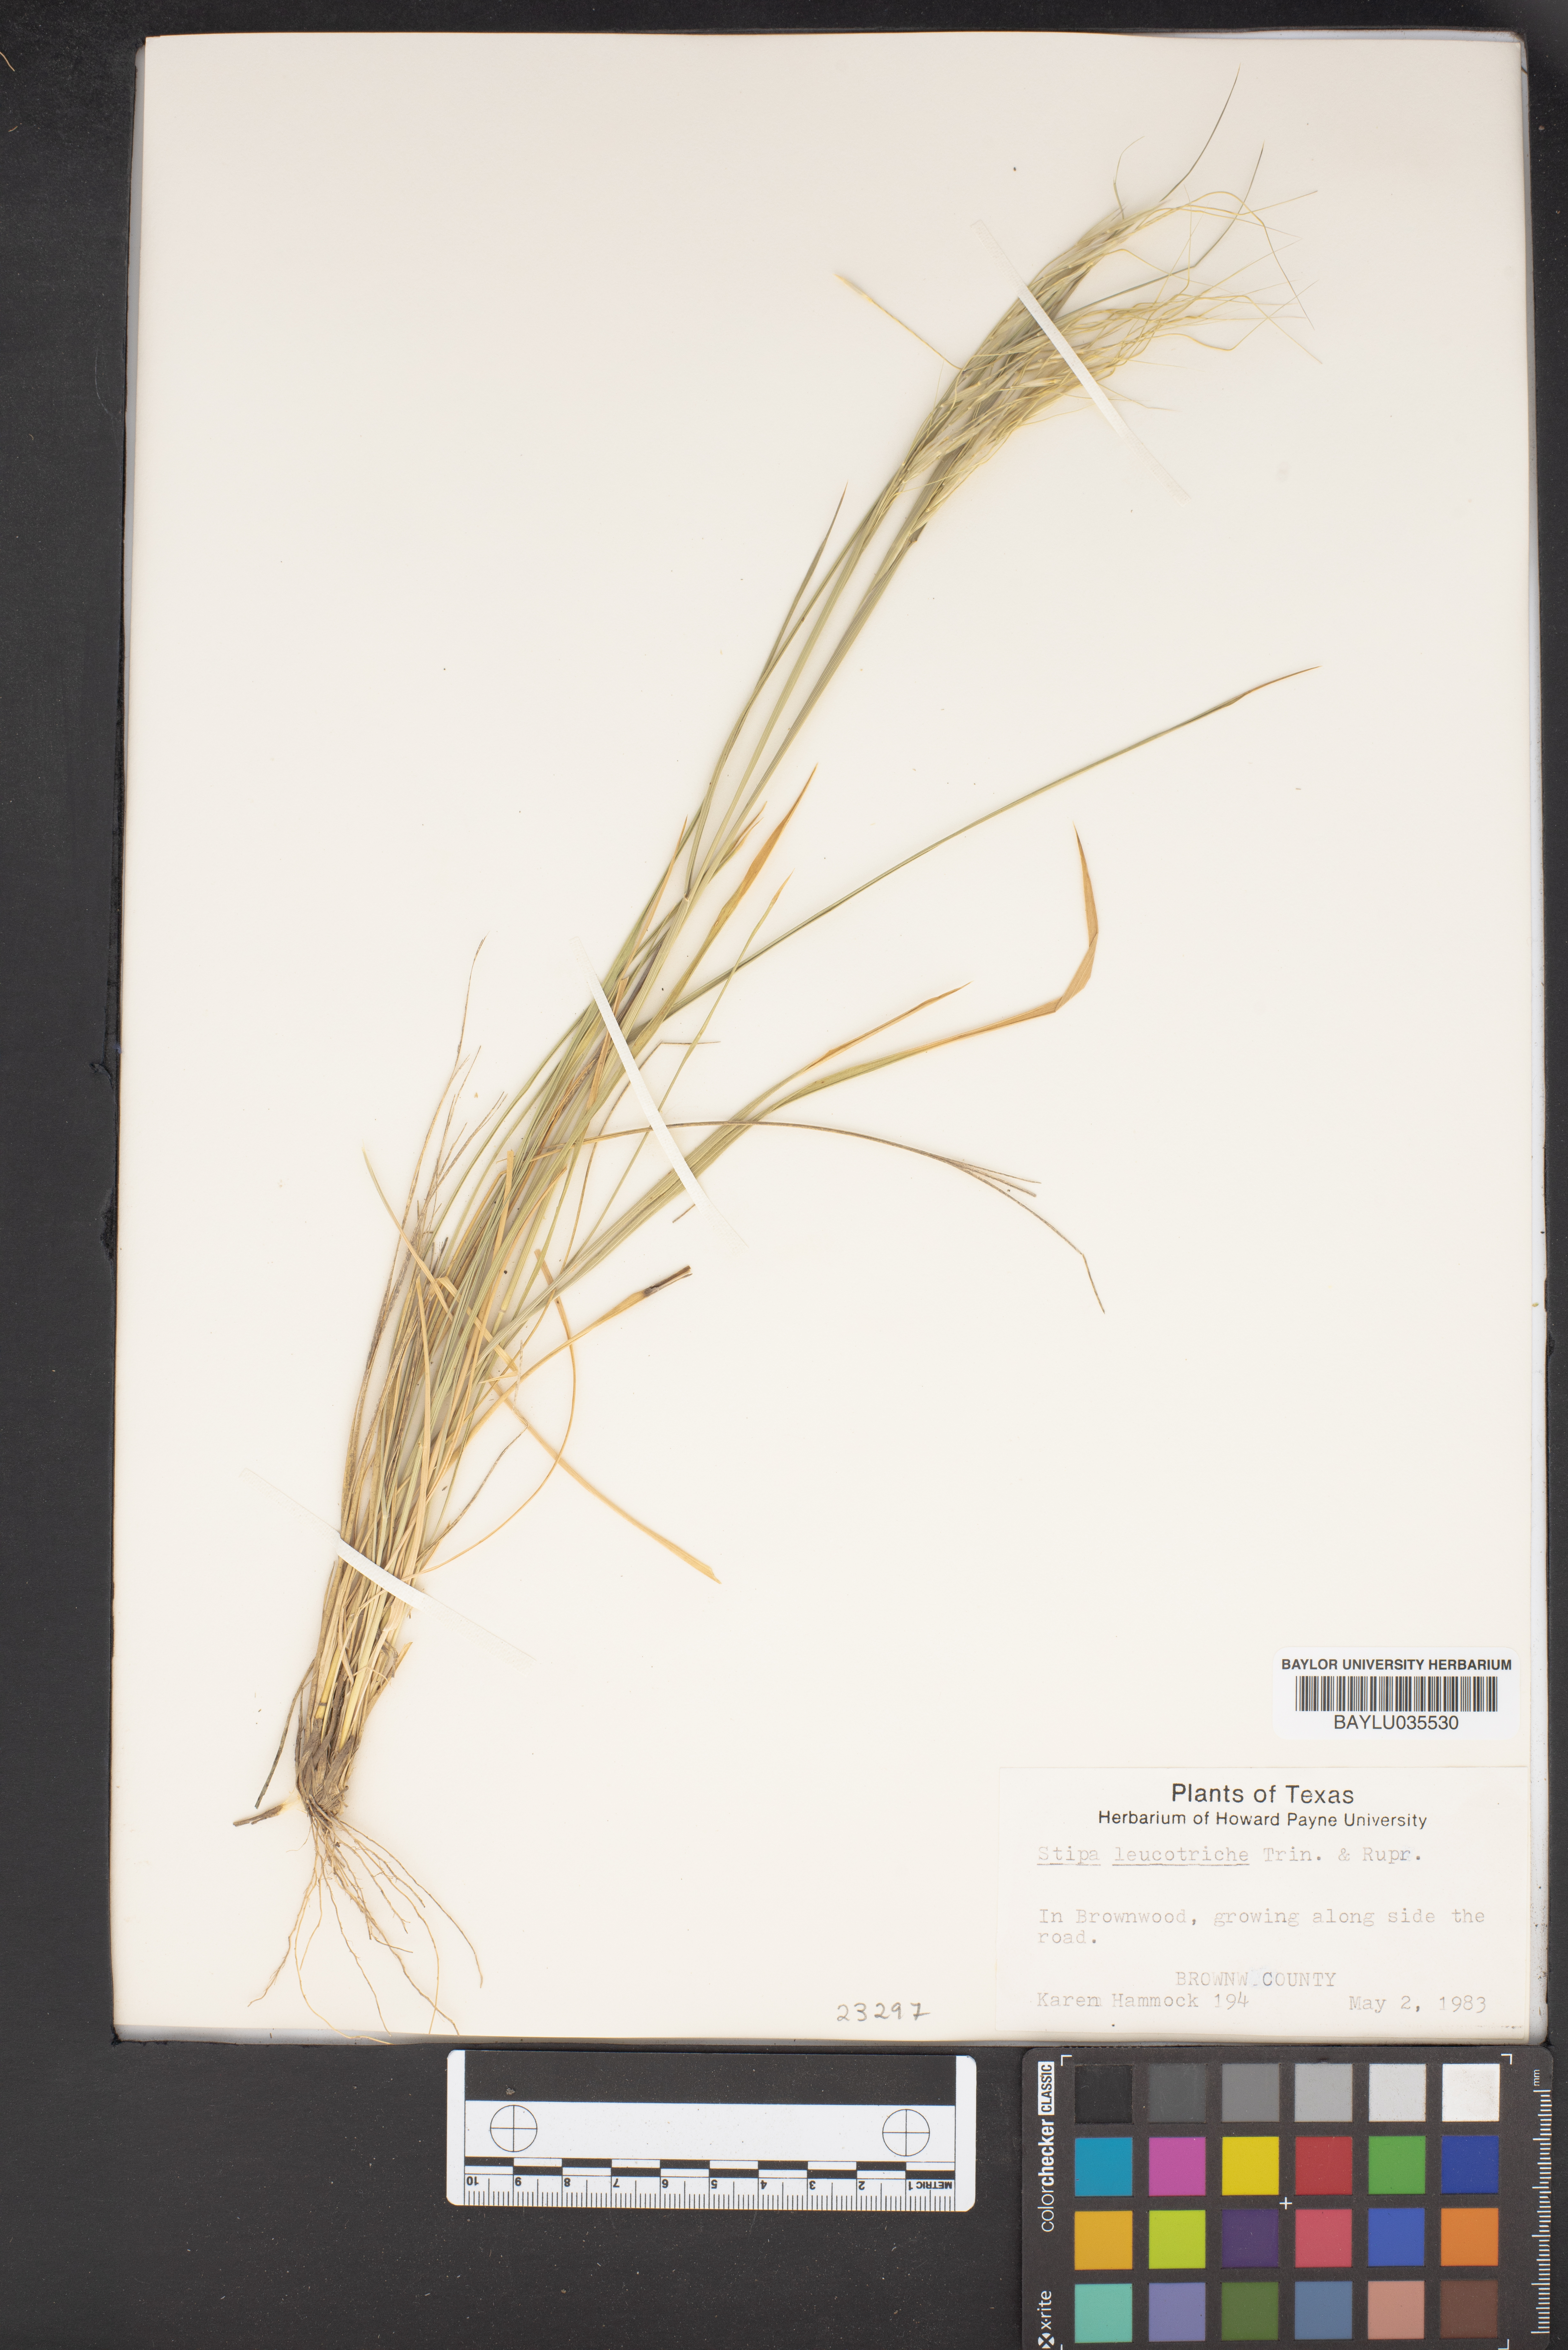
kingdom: Plantae
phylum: Tracheophyta
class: Liliopsida
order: Poales
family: Poaceae
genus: Nassella
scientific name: Nassella leucotricha
